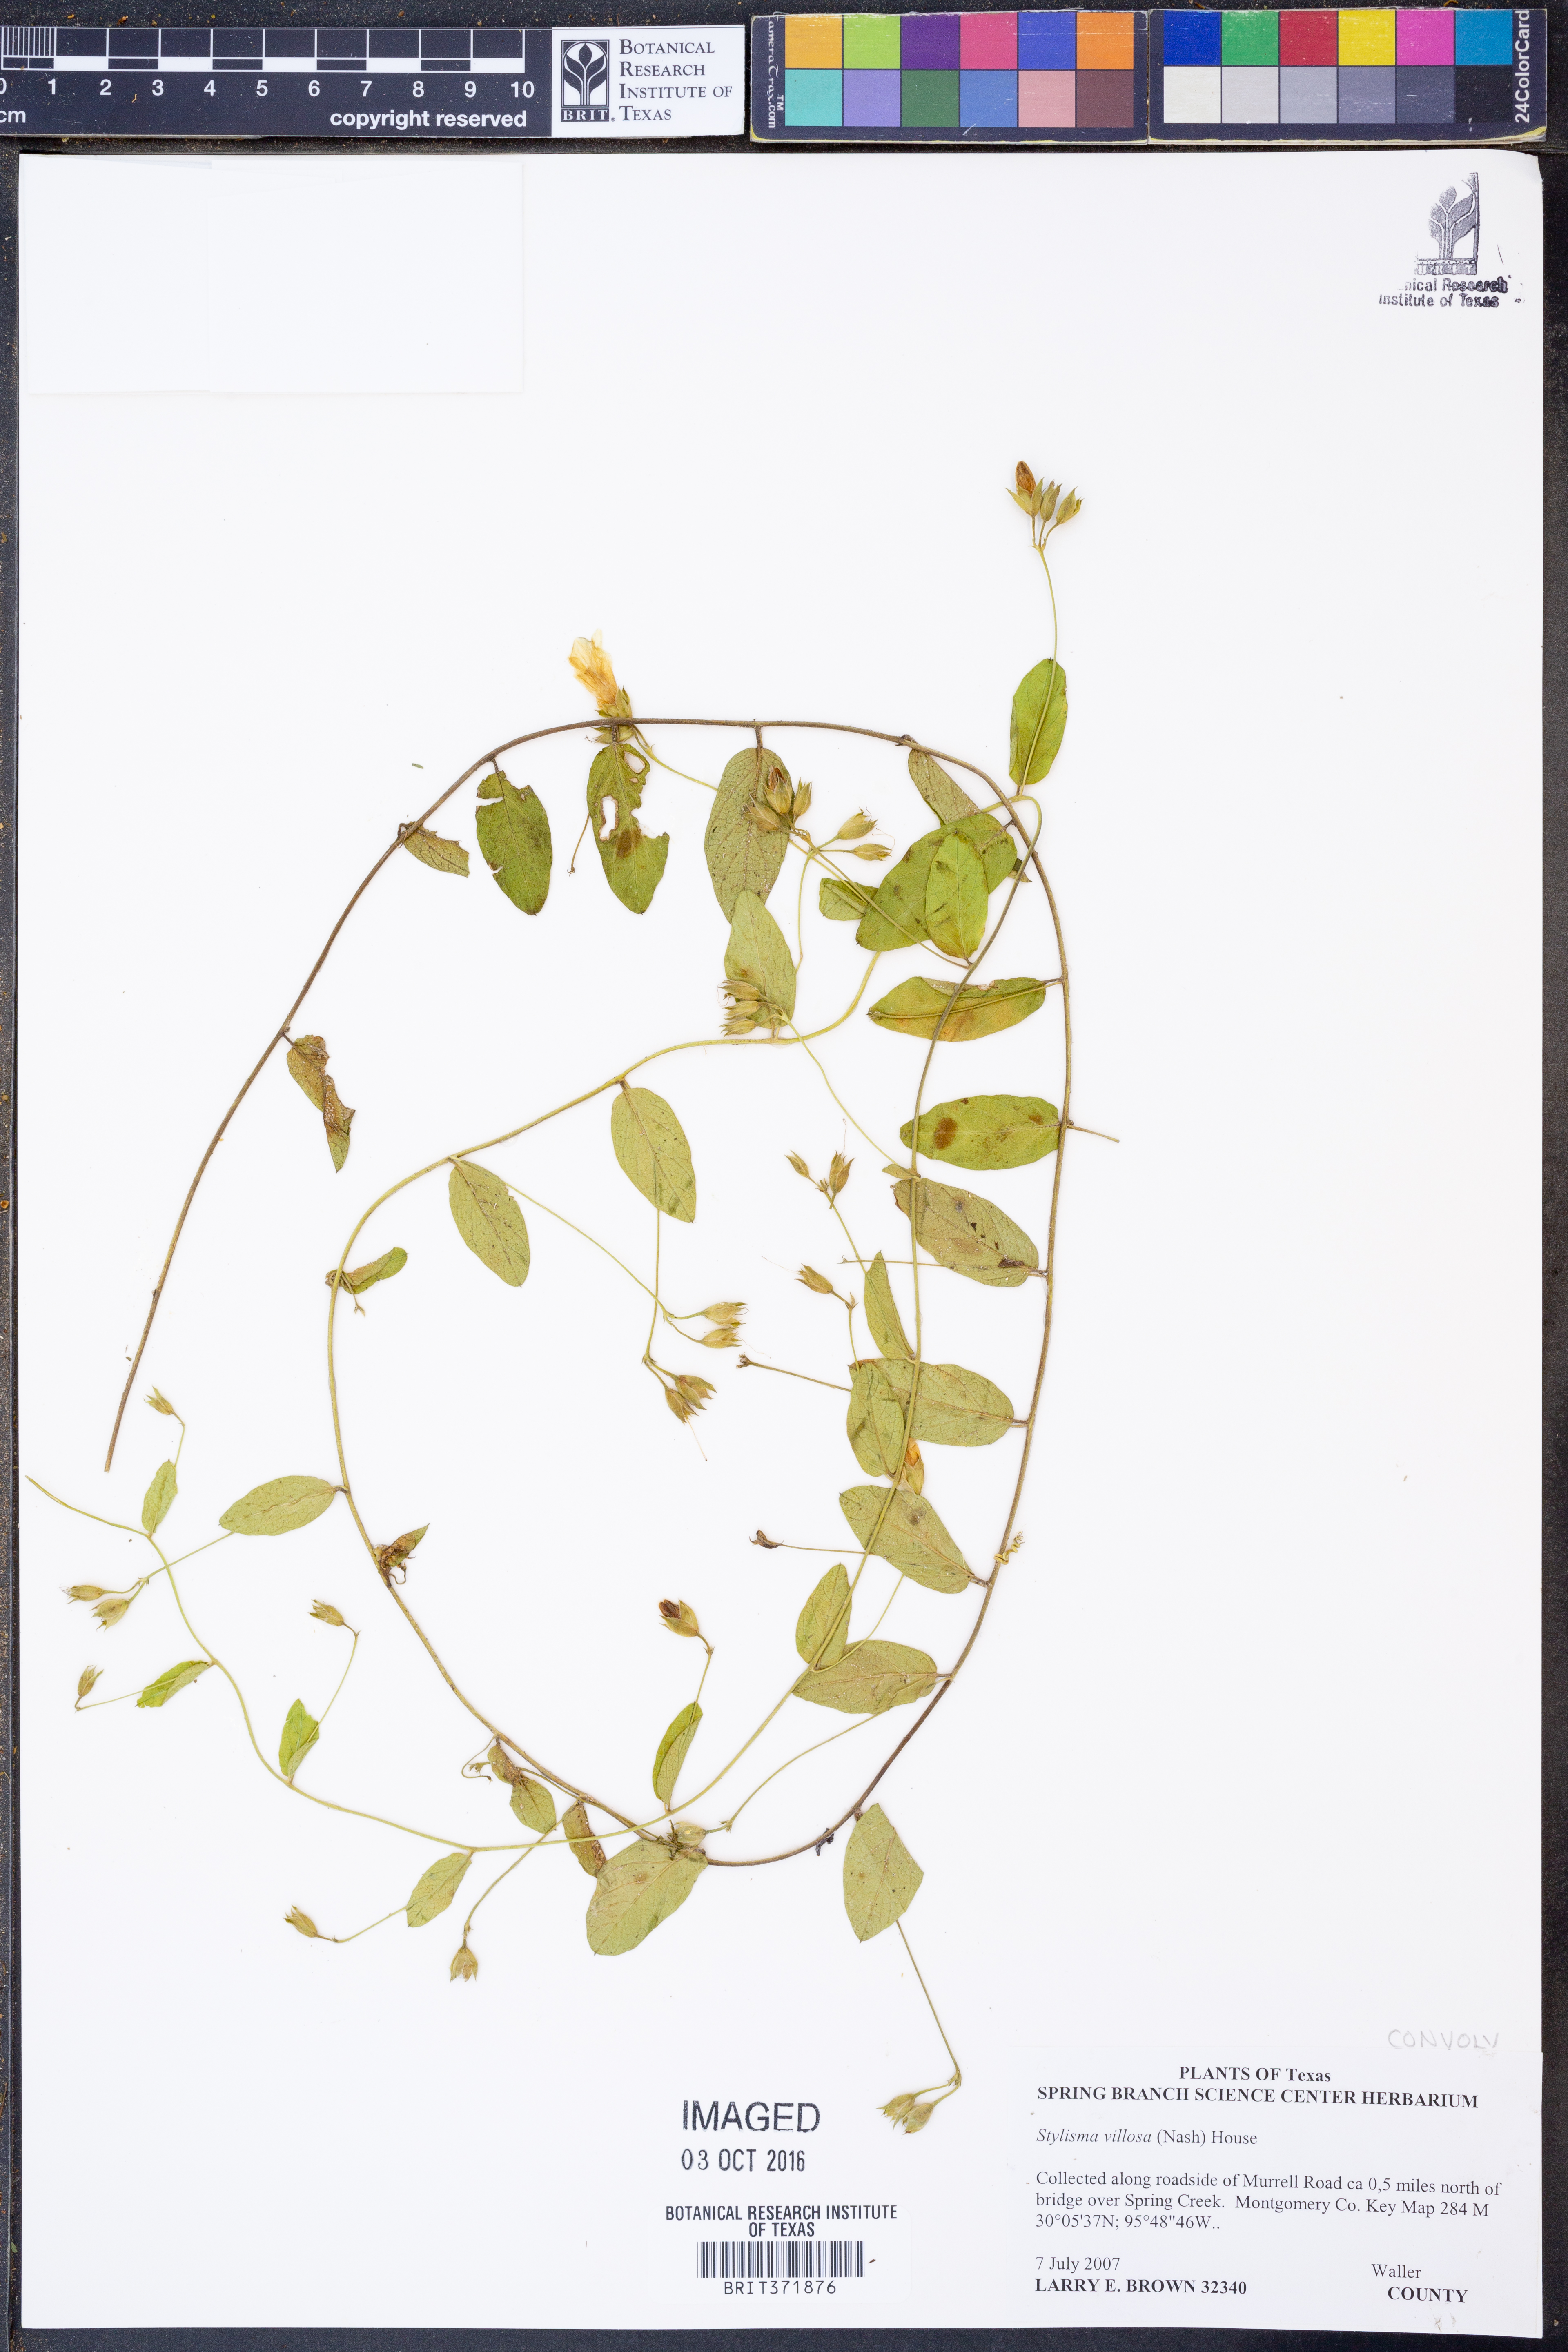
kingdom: Plantae
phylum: Tracheophyta
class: Magnoliopsida
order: Solanales
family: Convolvulaceae
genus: Stylisma
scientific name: Stylisma villosa
